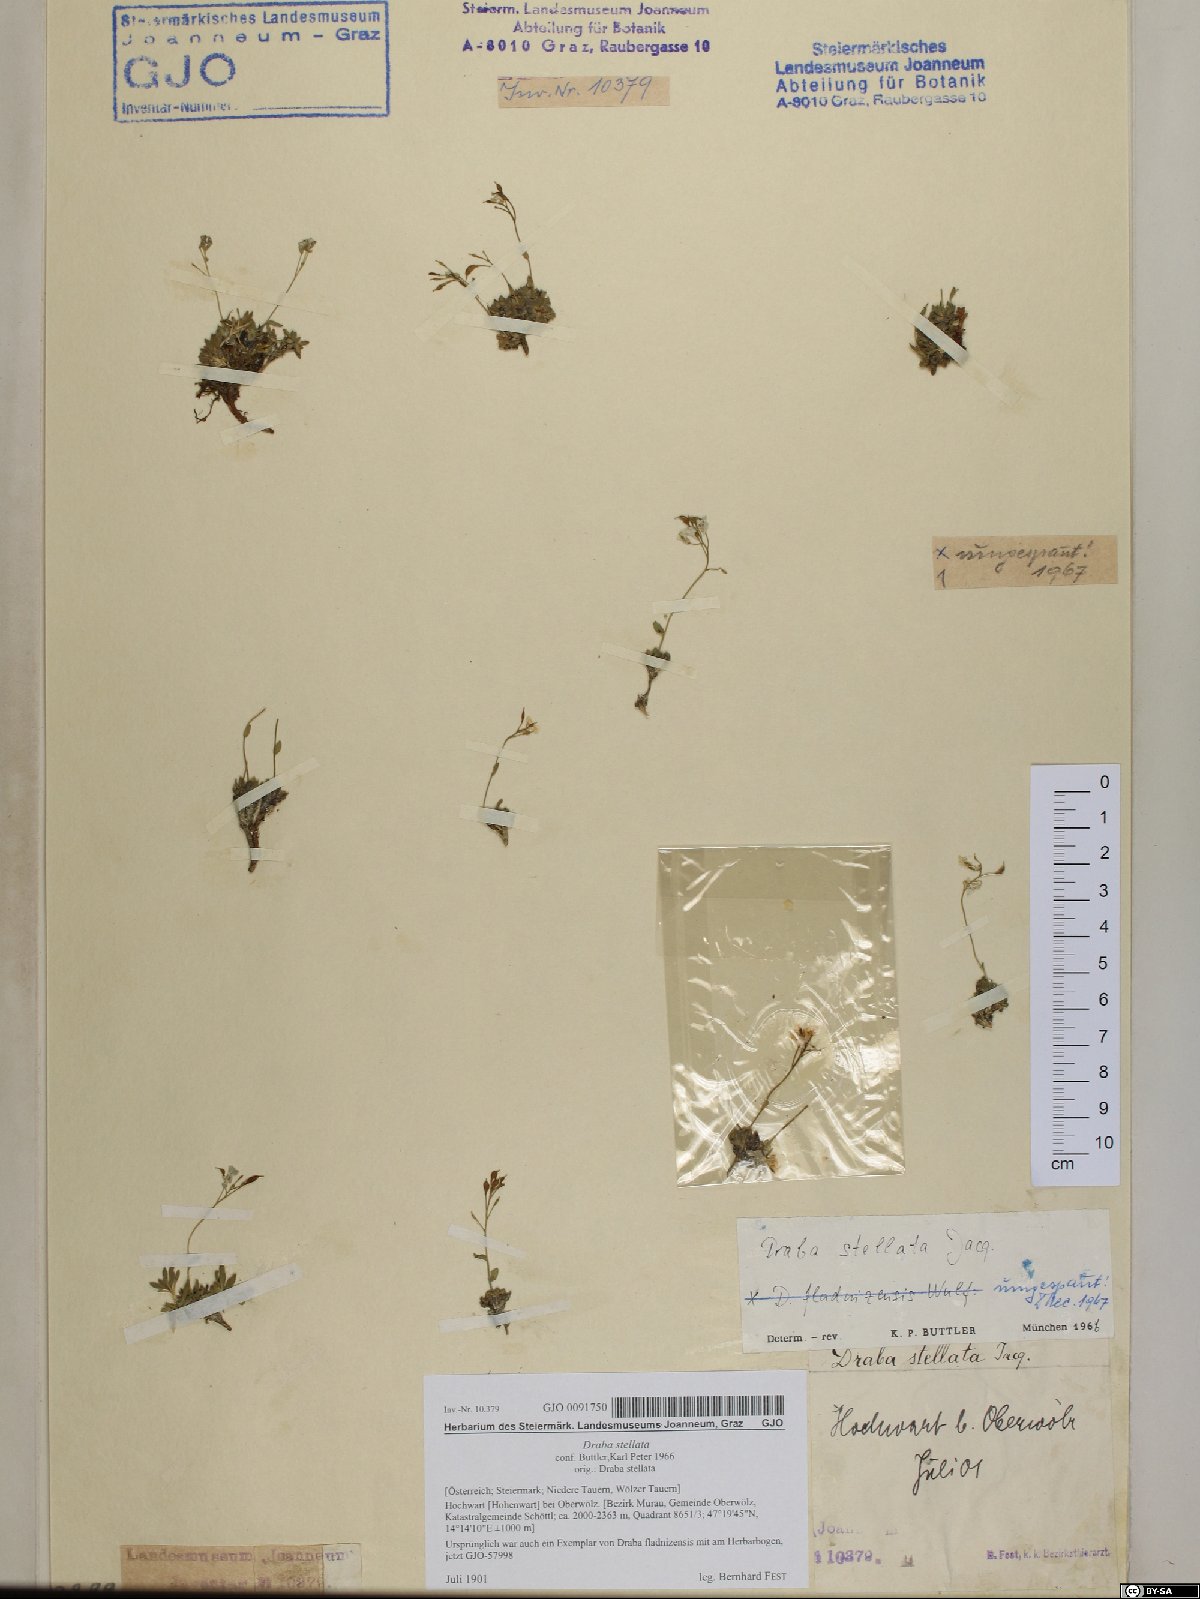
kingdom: Plantae
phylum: Tracheophyta
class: Magnoliopsida
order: Brassicales
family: Brassicaceae
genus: Draba
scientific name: Draba stellata
